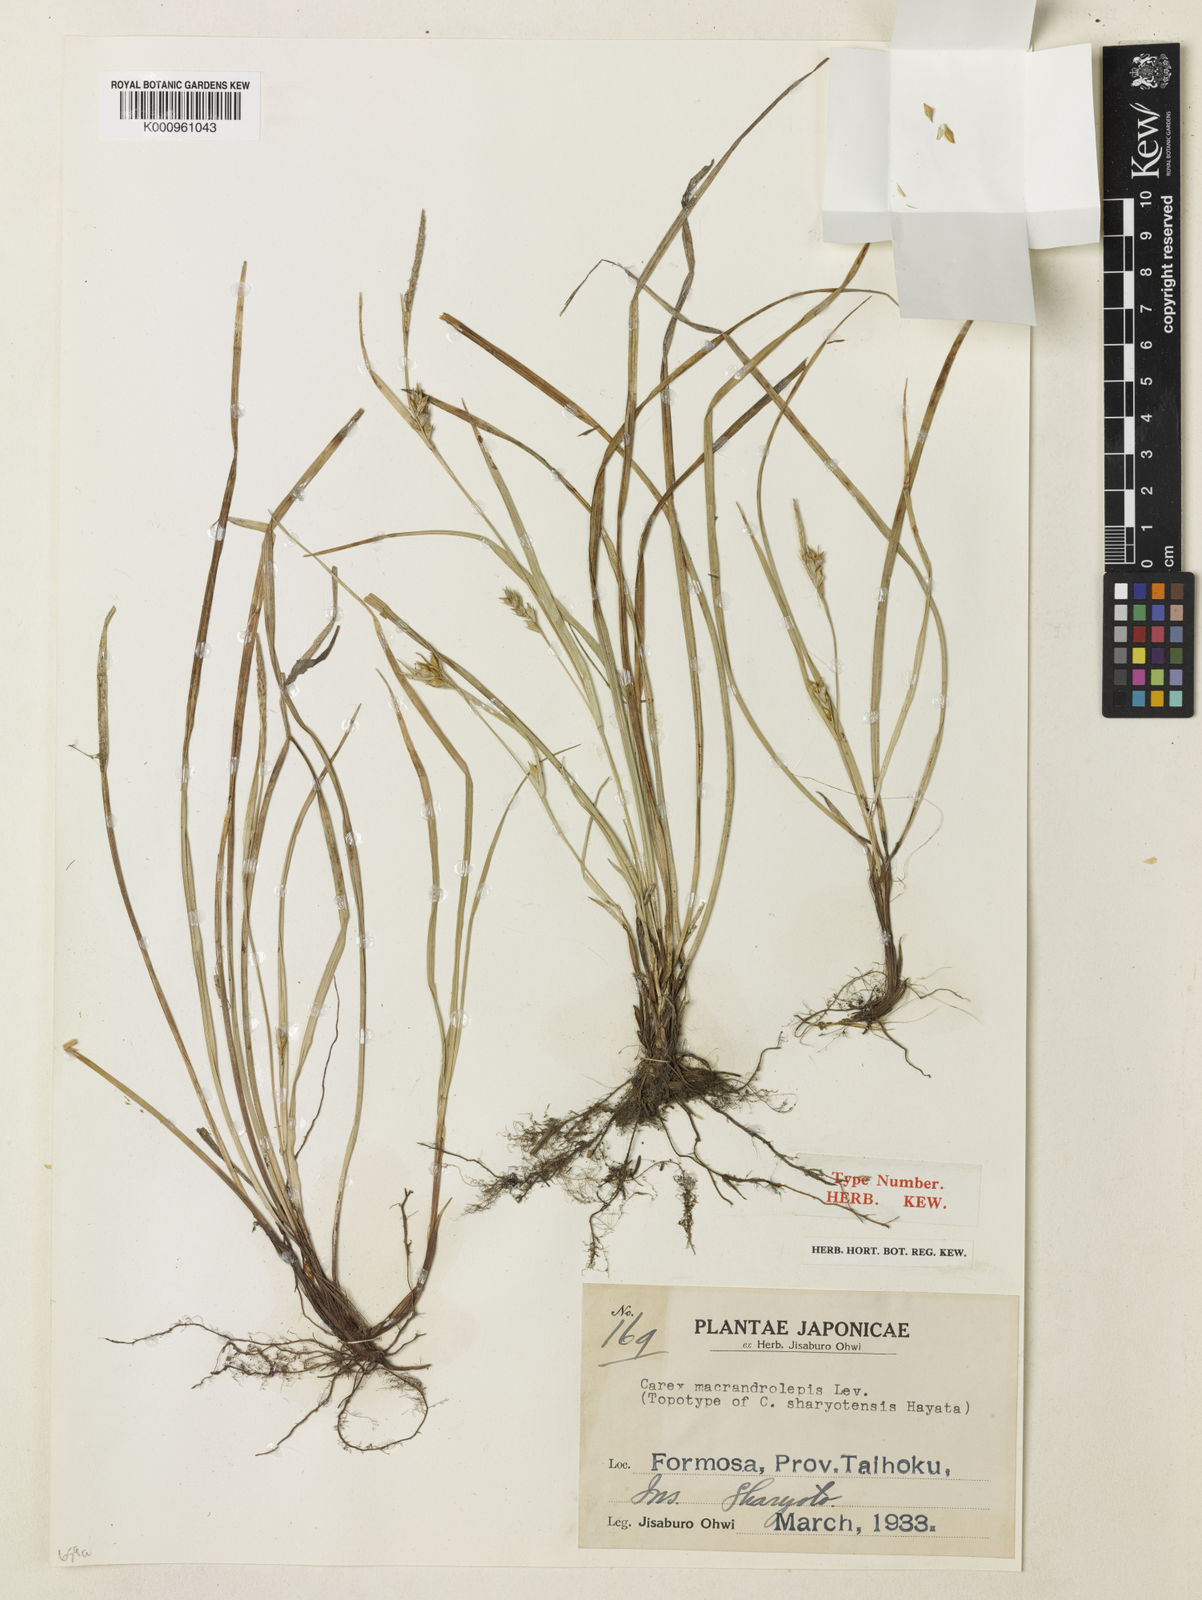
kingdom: Plantae
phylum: Tracheophyta
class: Liliopsida
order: Poales
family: Cyperaceae
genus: Carex
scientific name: Carex
